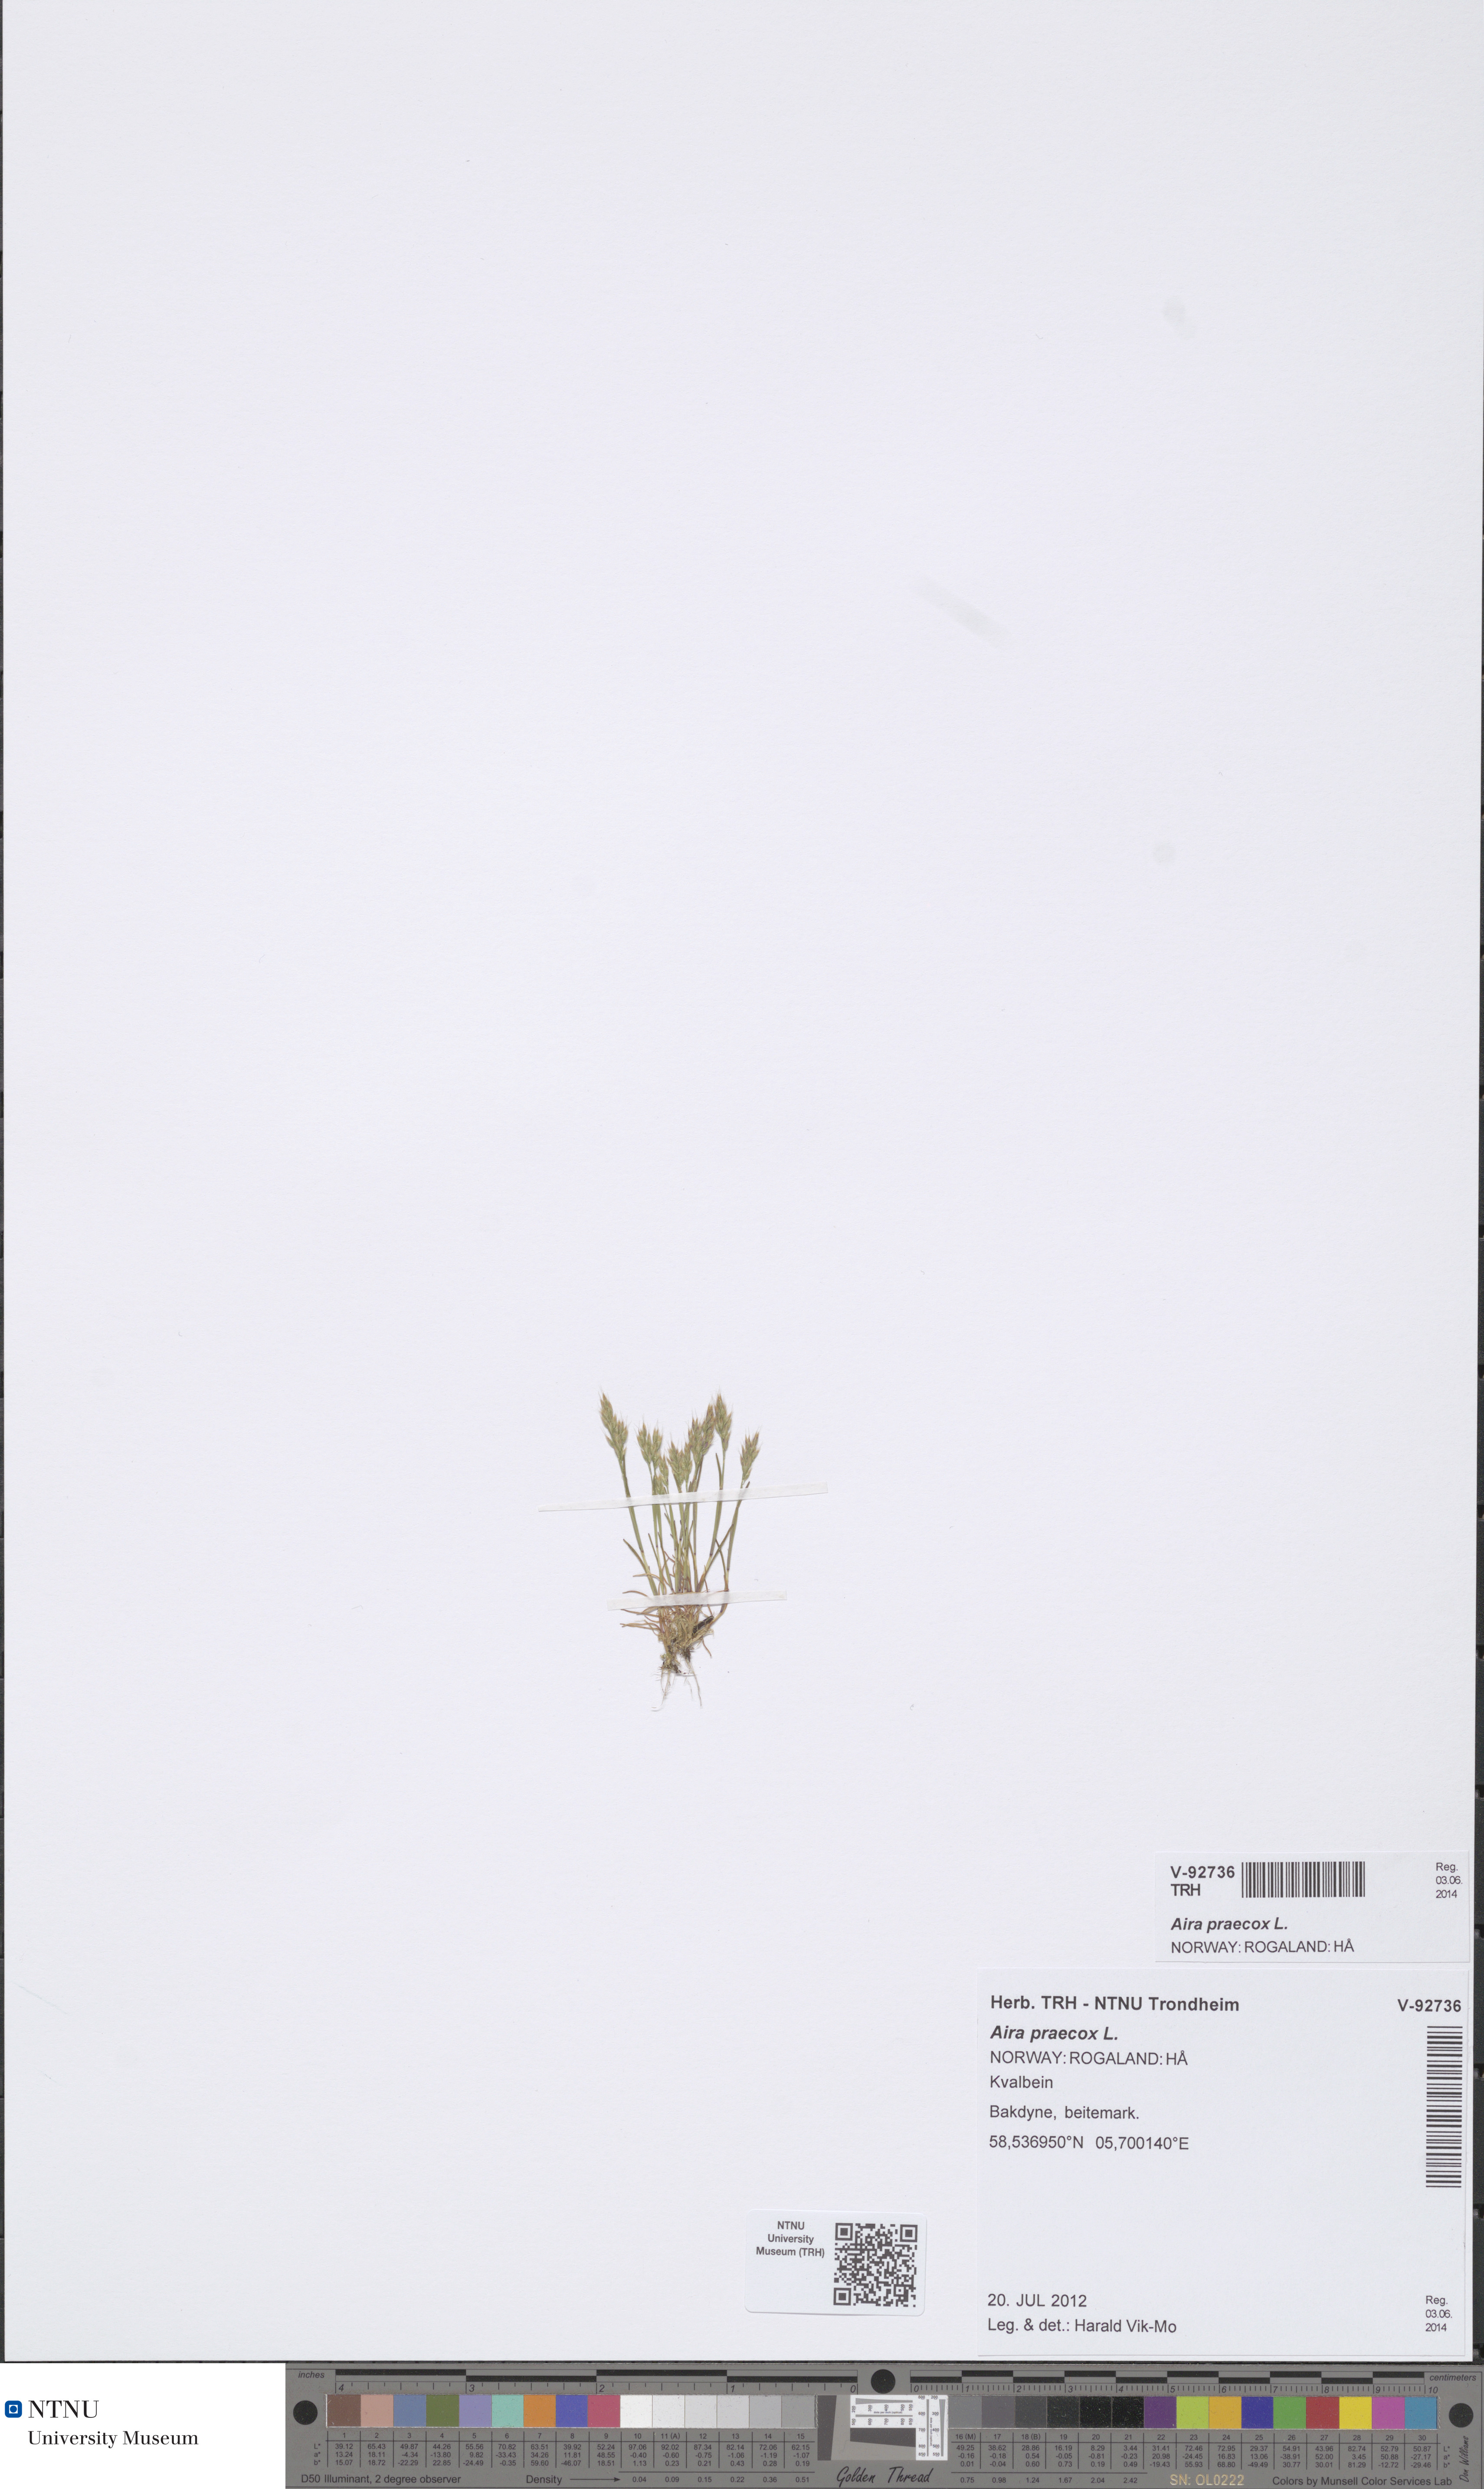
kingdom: Plantae
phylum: Tracheophyta
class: Liliopsida
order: Poales
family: Poaceae
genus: Aira
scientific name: Aira praecox
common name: Early hair-grass
